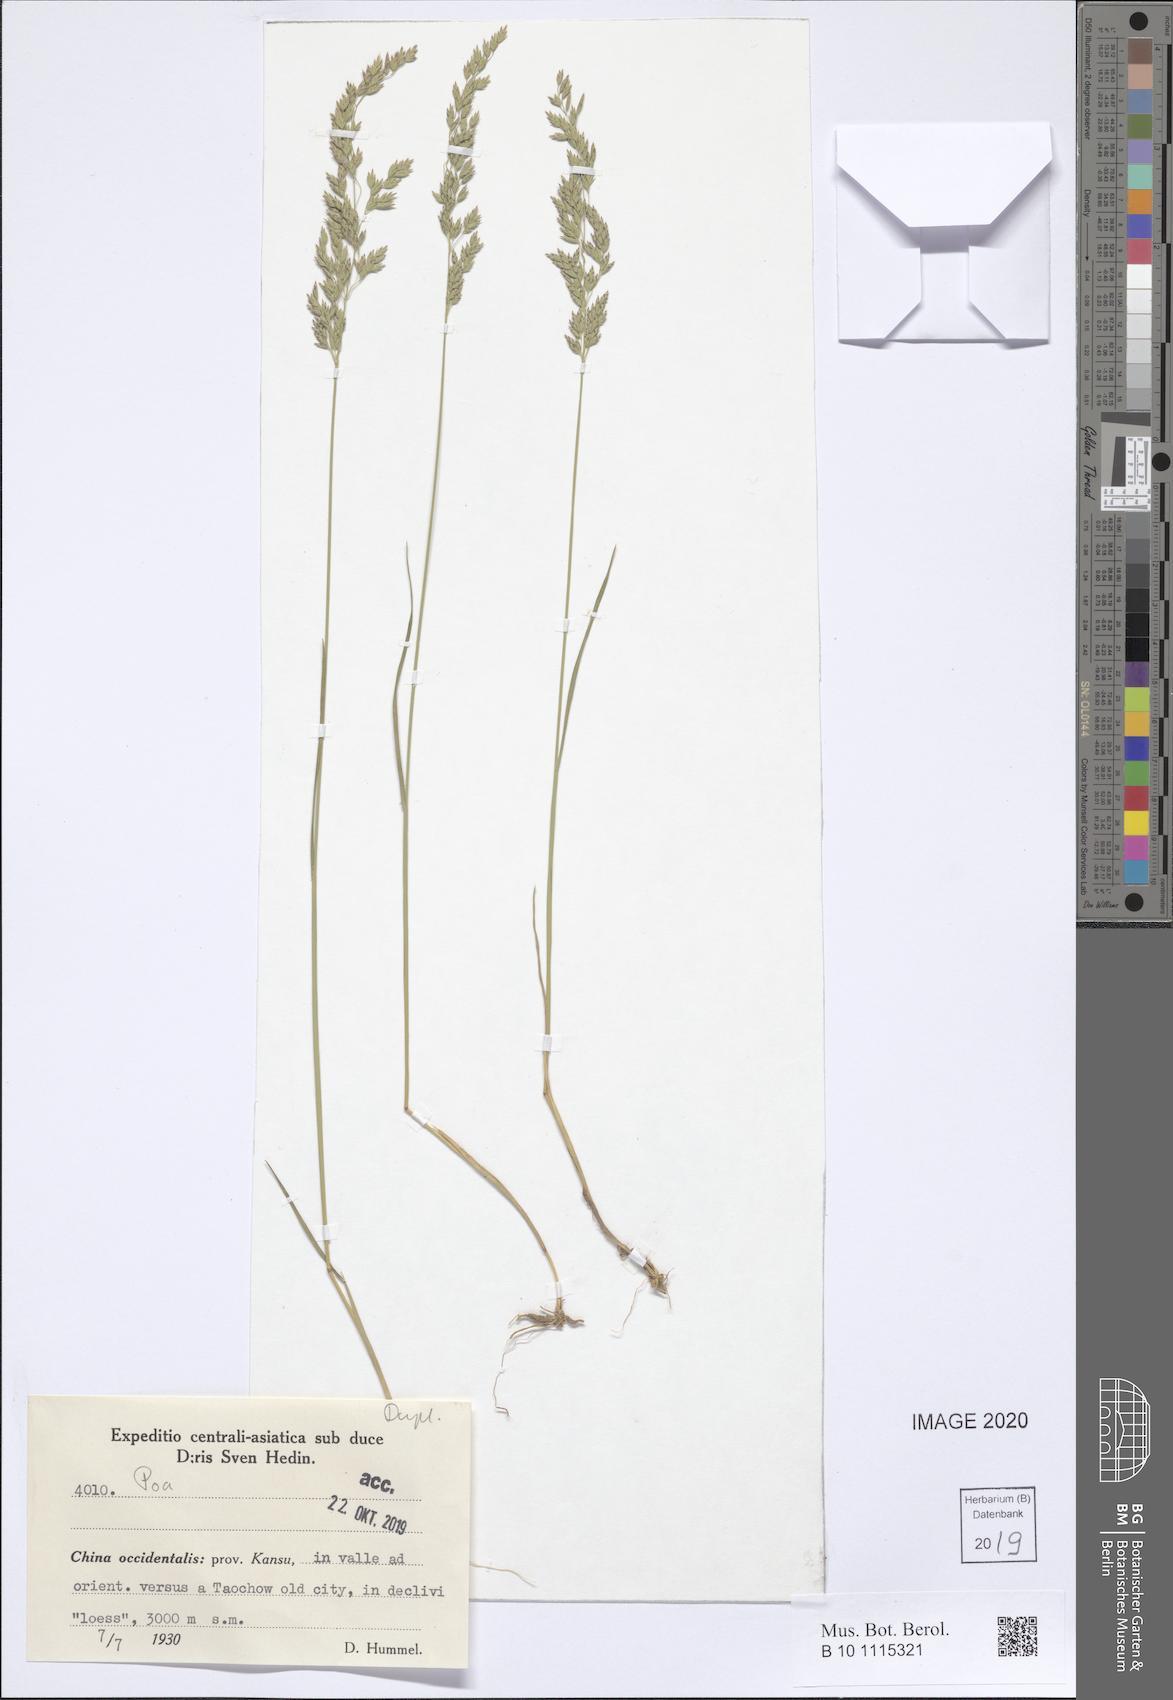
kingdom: Plantae
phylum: Tracheophyta
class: Liliopsida
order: Poales
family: Poaceae
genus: Poa
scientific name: Poa
